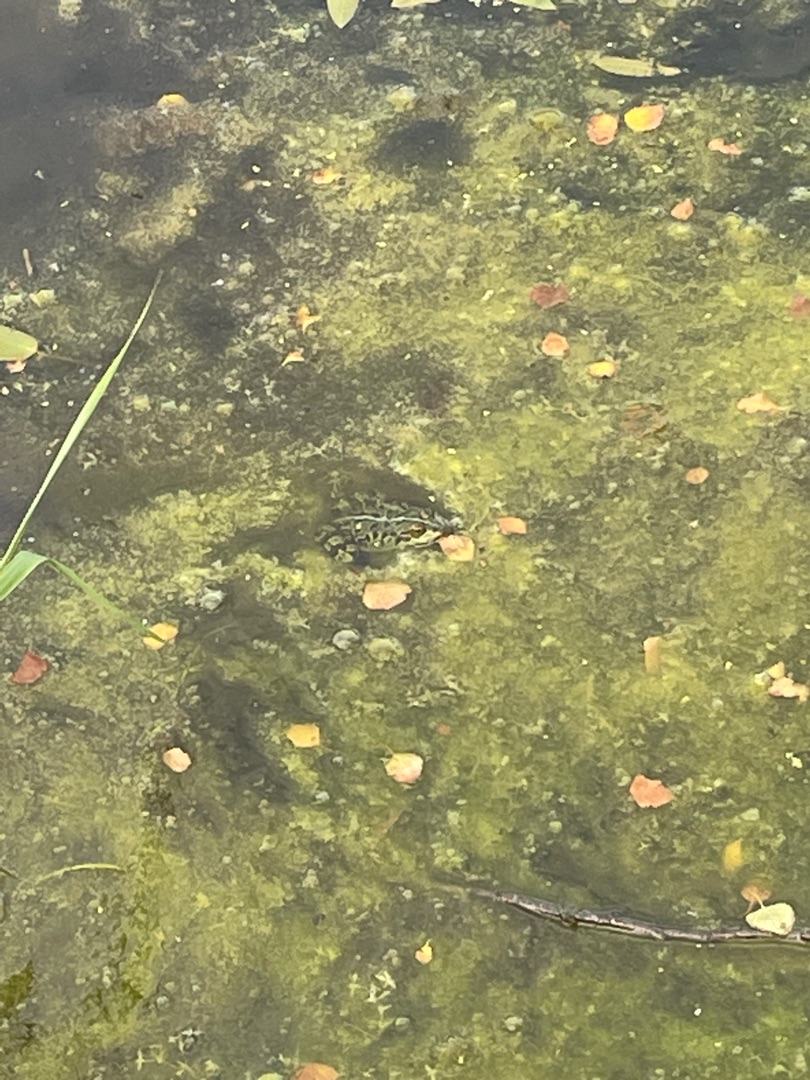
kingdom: Animalia
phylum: Chordata
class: Amphibia
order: Anura
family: Ranidae
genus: Pelophylax
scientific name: Pelophylax lessonae
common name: Grøn frø
